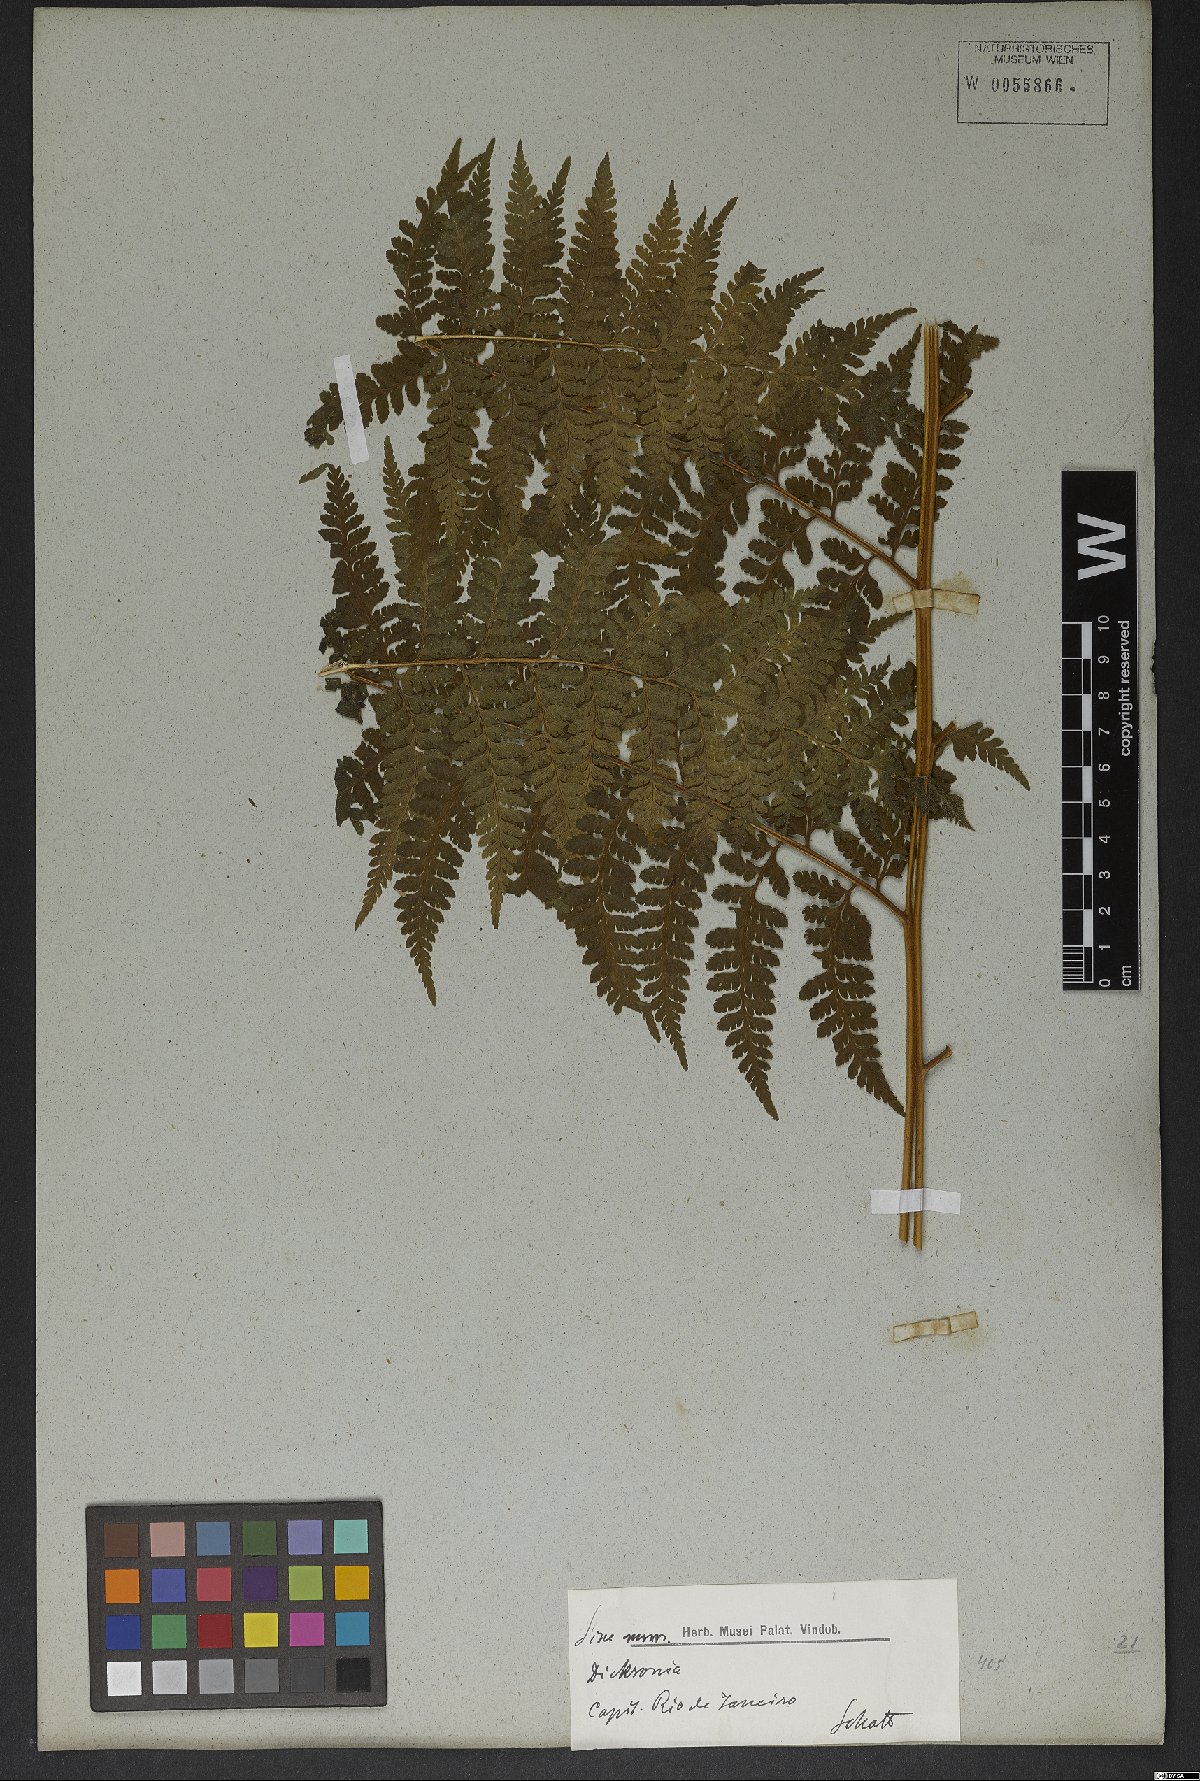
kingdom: Plantae
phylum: Tracheophyta
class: Polypodiopsida
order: Polypodiales
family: Dennstaedtiaceae
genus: Microlepia
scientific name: Microlepia speluncae
